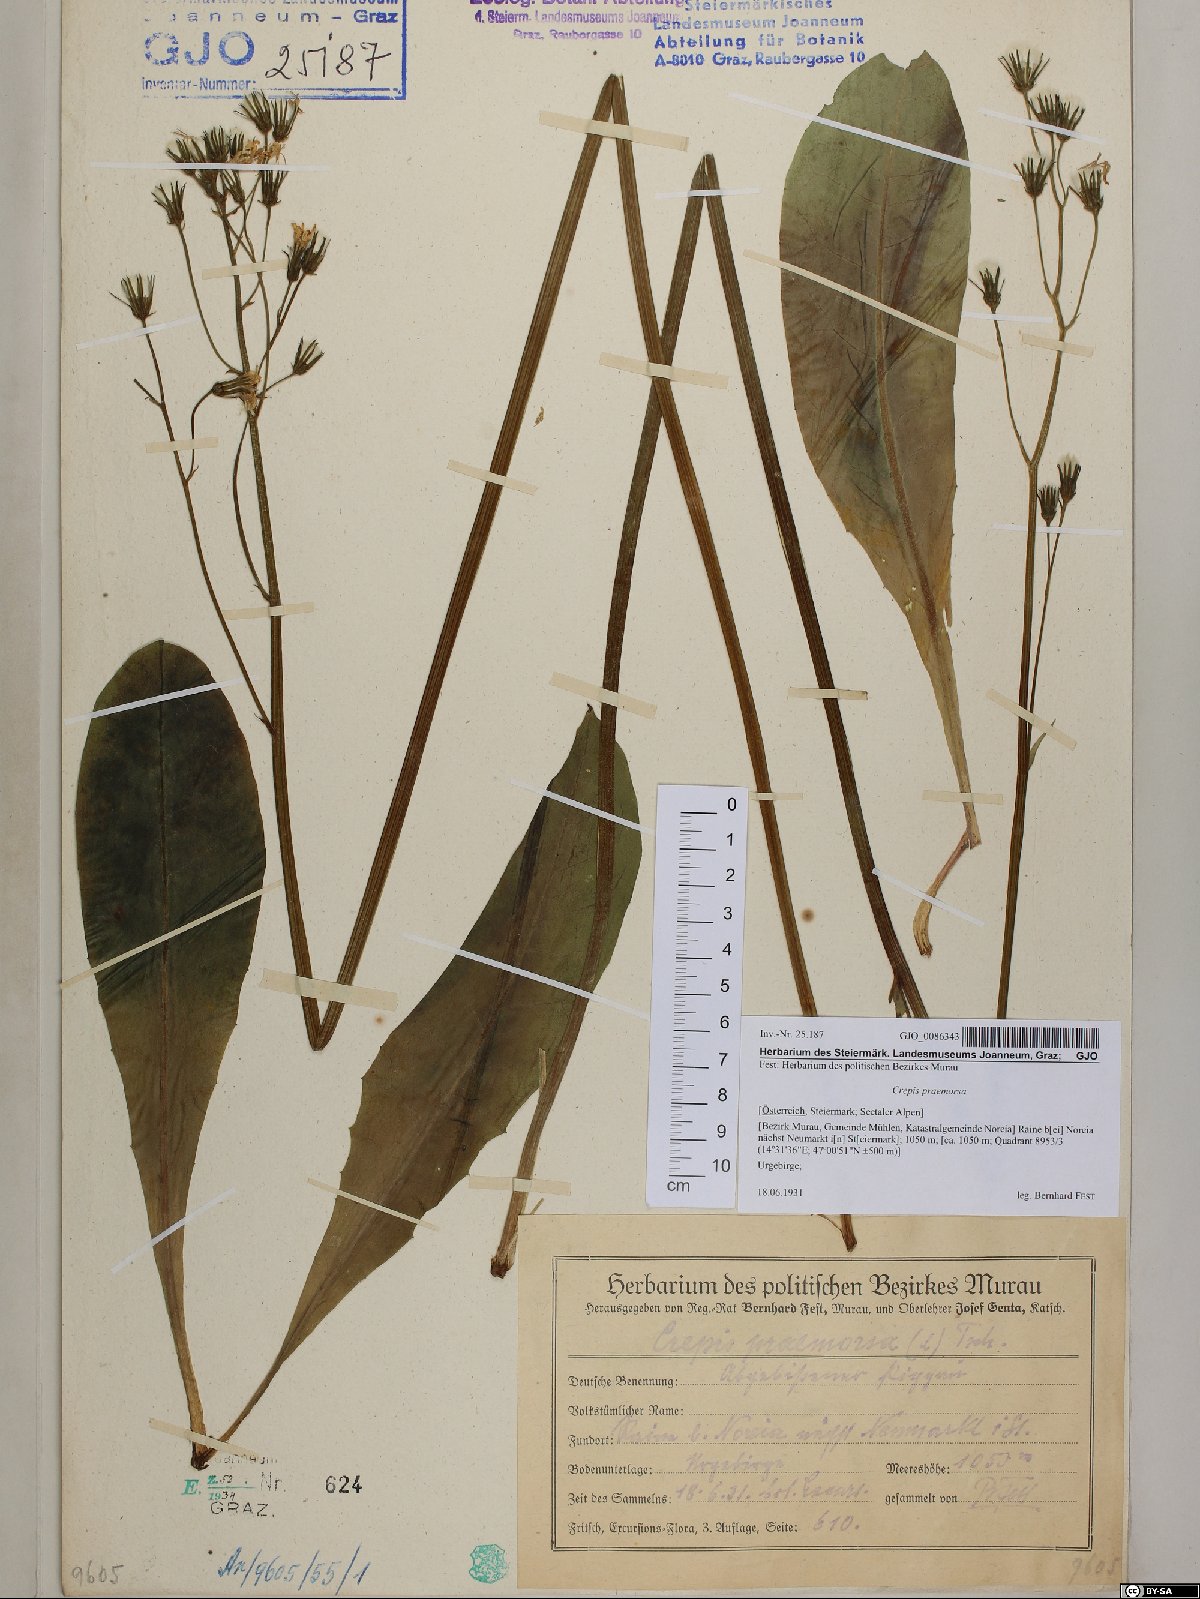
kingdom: Plantae
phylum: Tracheophyta
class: Magnoliopsida
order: Asterales
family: Asteraceae
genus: Crepis
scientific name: Crepis praemorsa
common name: Leafless hawk's-beard
